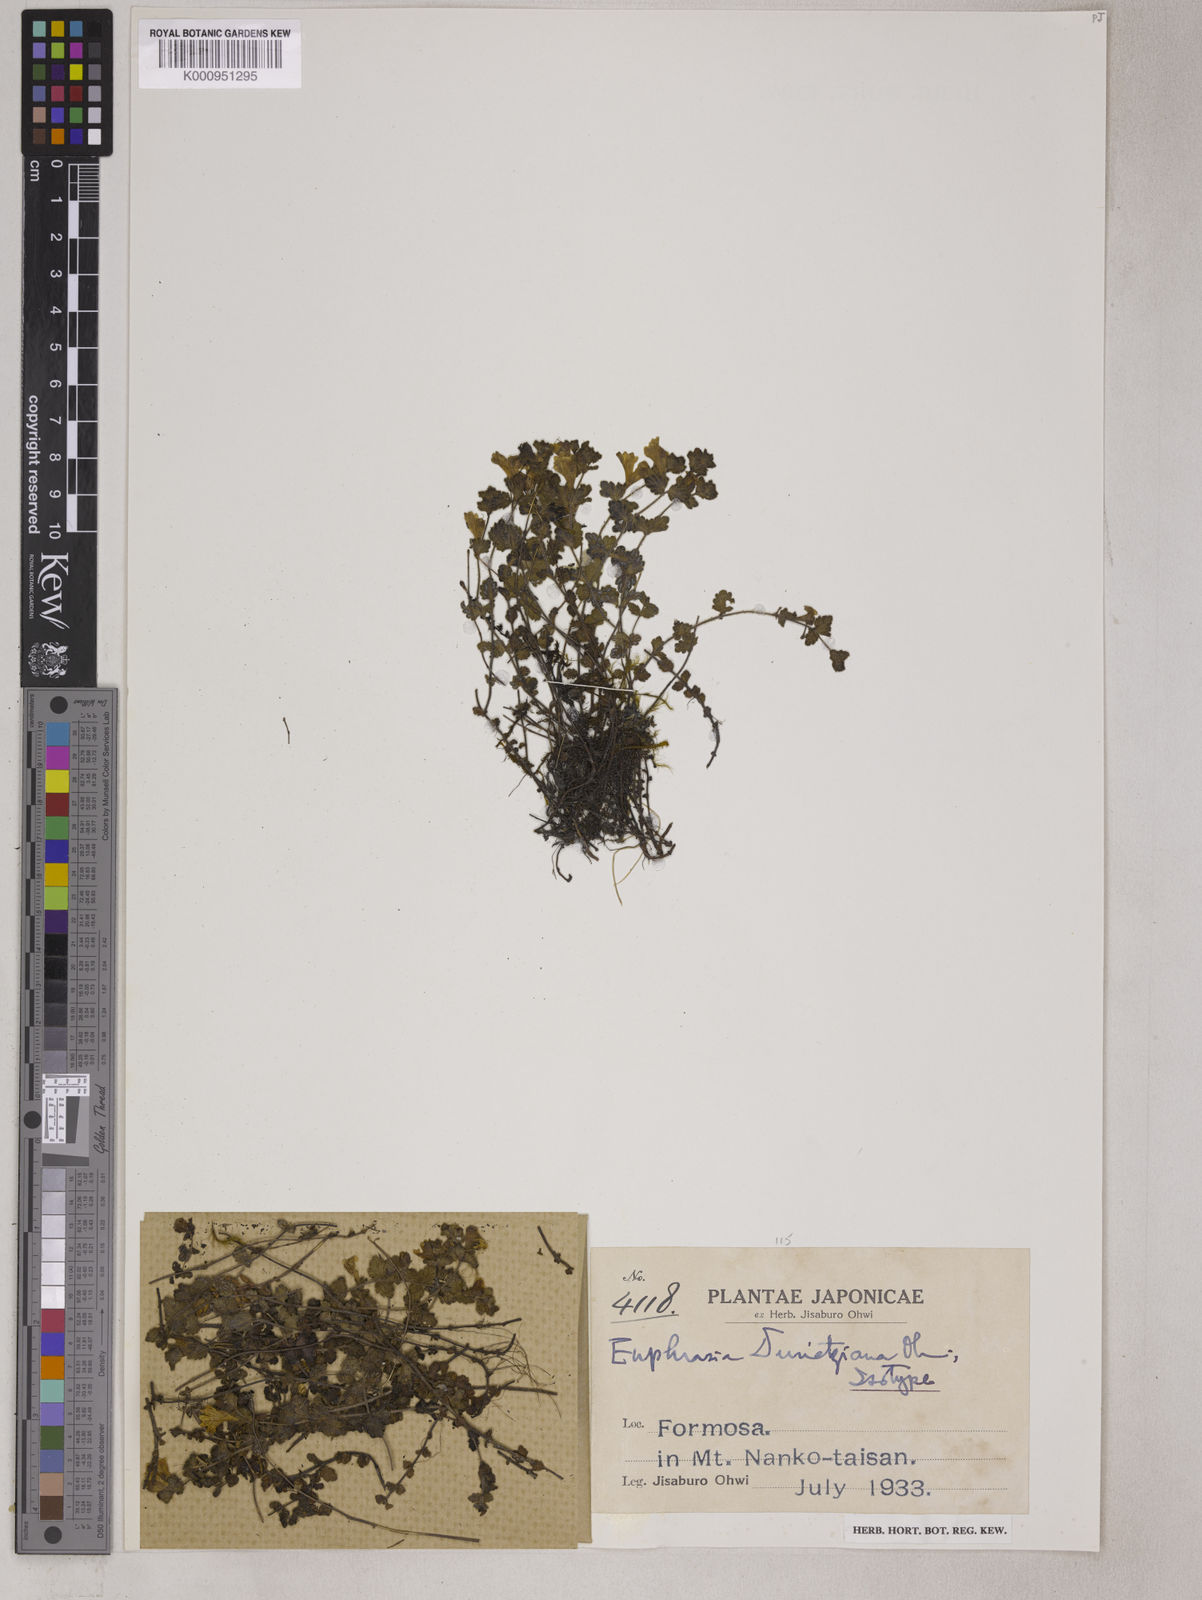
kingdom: Plantae
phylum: Tracheophyta
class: Magnoliopsida
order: Lamiales
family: Orobanchaceae
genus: Euphrasia
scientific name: Euphrasia transmorrisonensis
